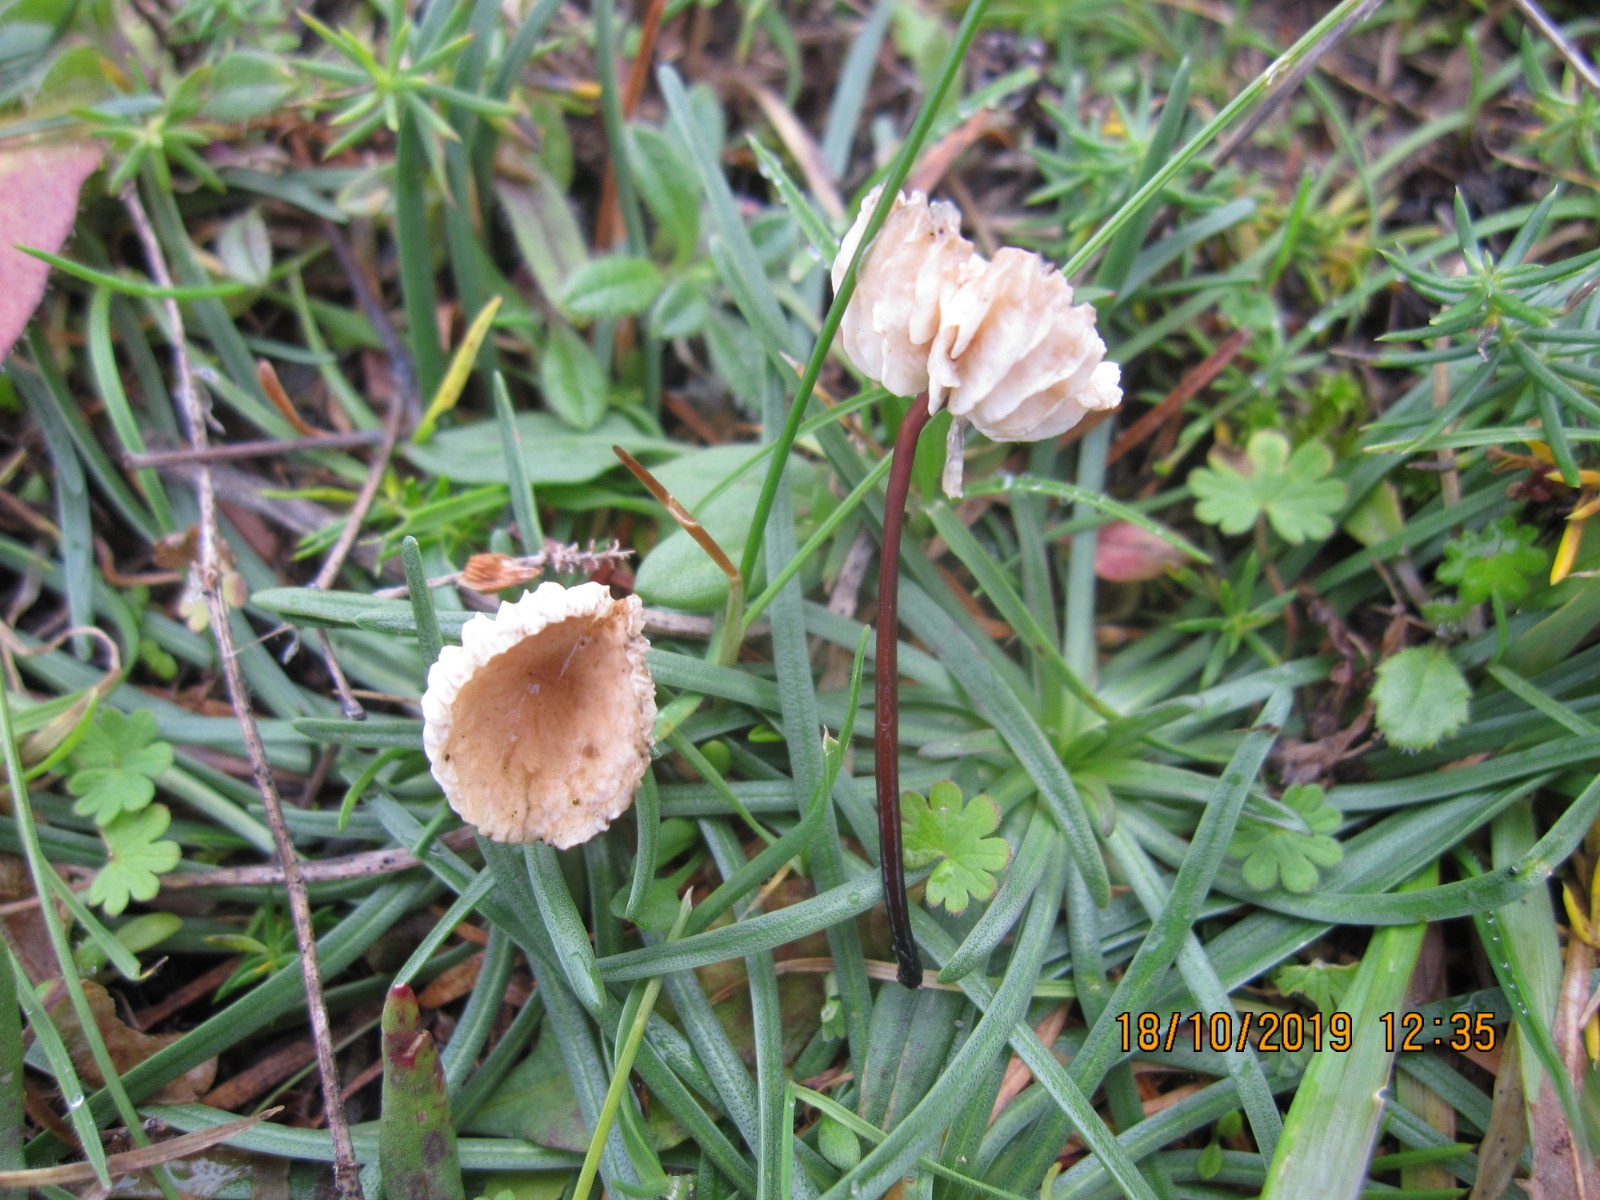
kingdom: Fungi
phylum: Basidiomycota
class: Agaricomycetes
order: Agaricales
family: Omphalotaceae
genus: Mycetinis
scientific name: Mycetinis scorodonius
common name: lille løghat
